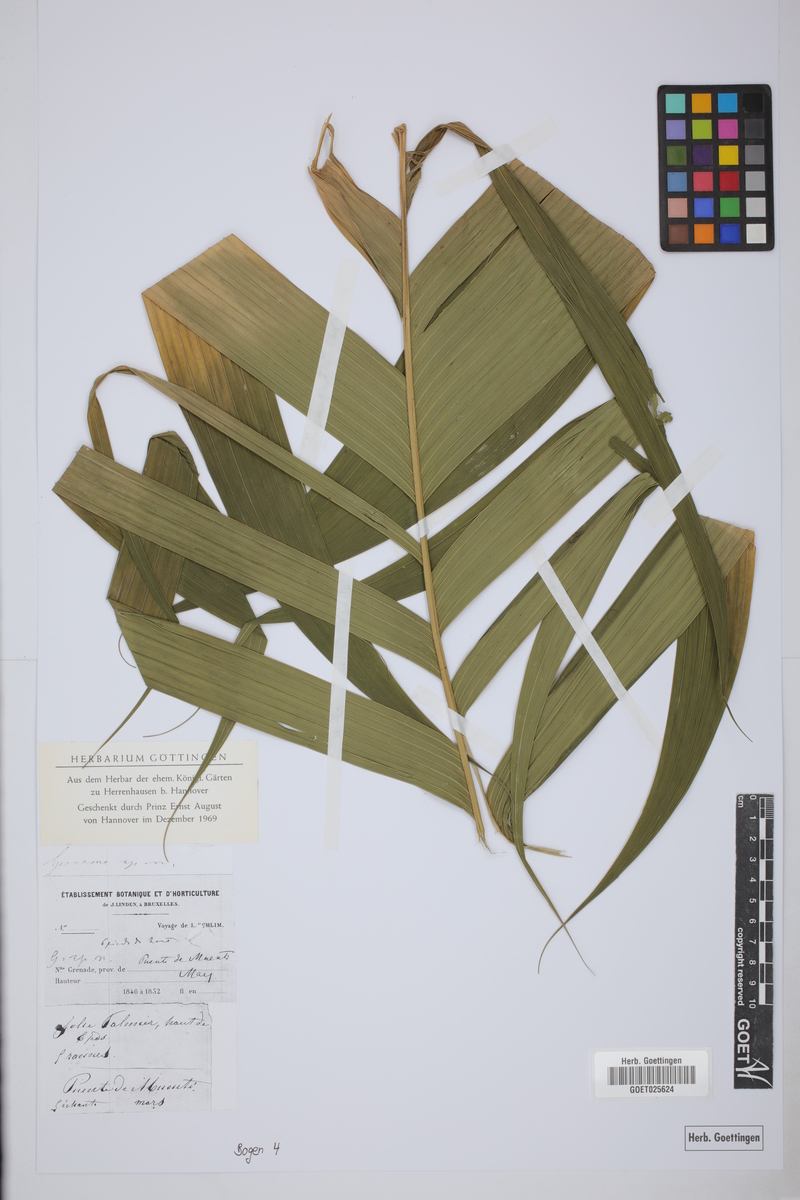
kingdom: Plantae
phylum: Tracheophyta
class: Liliopsida
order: Arecales
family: Arecaceae
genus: Geonoma
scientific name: Geonoma
